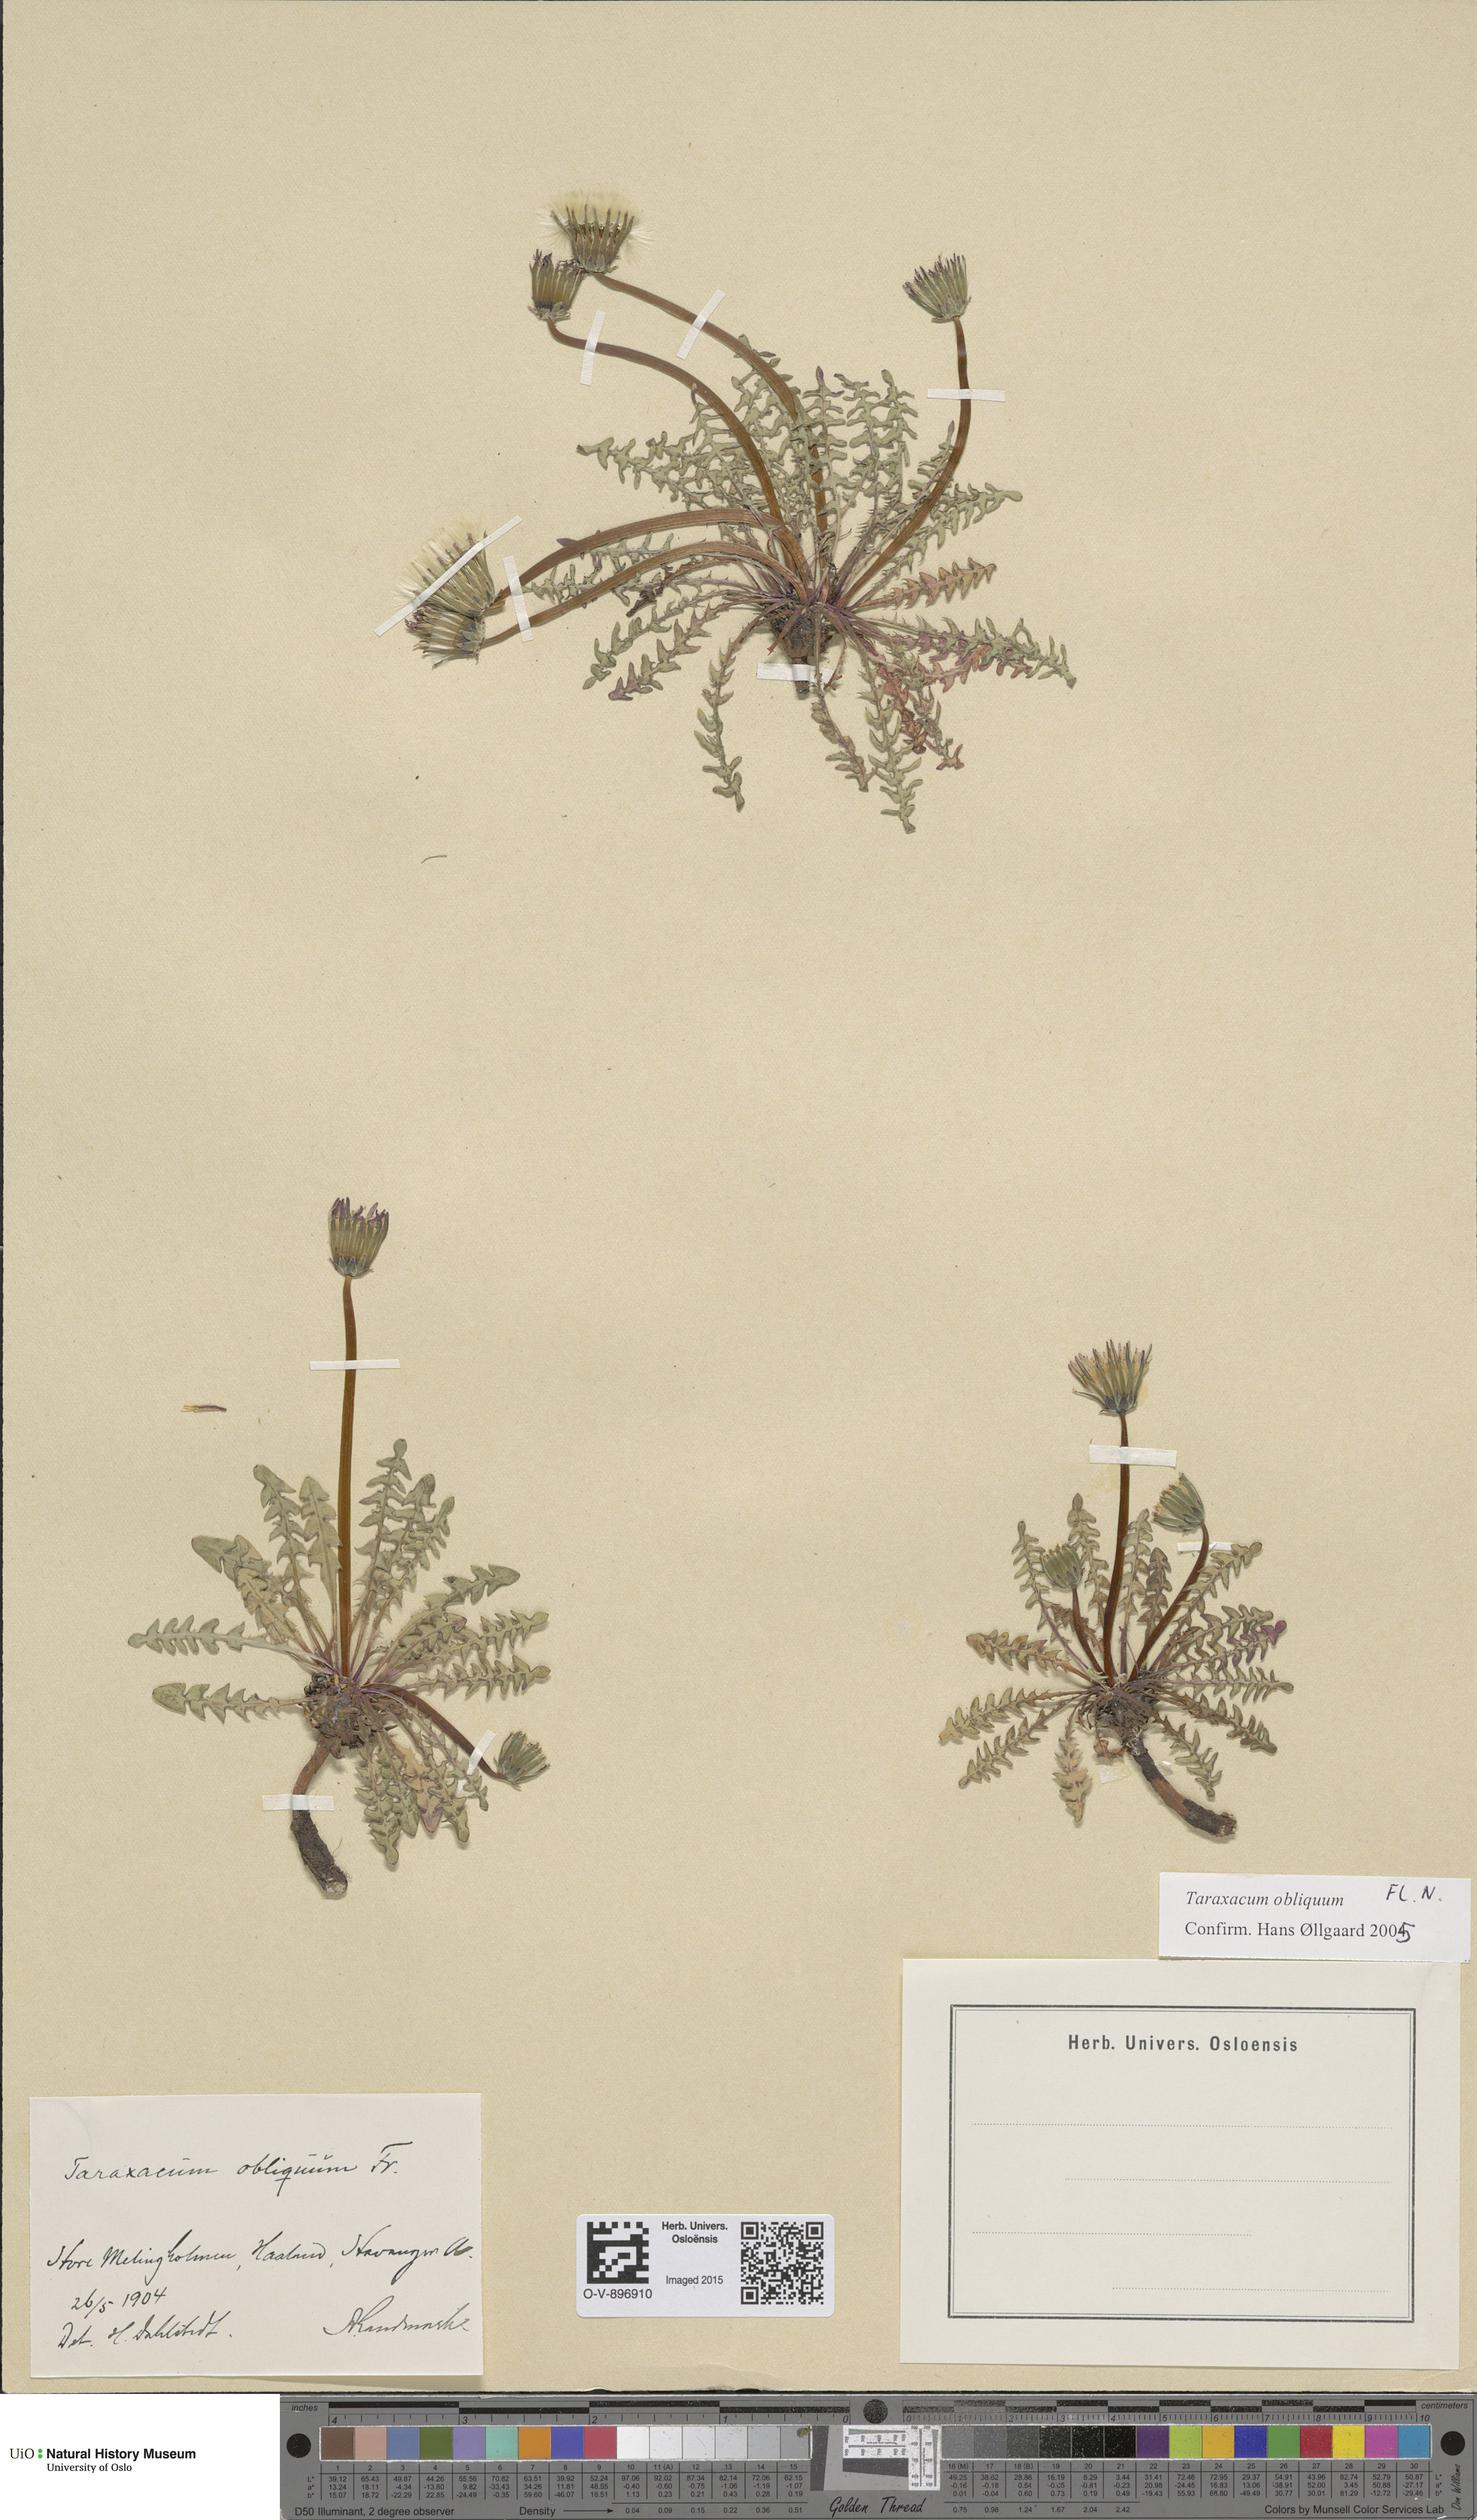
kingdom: Plantae
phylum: Tracheophyta
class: Magnoliopsida
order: Asterales
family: Asteraceae
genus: Taraxacum
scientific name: Taraxacum obliquum
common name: Many-lobed dandelion
